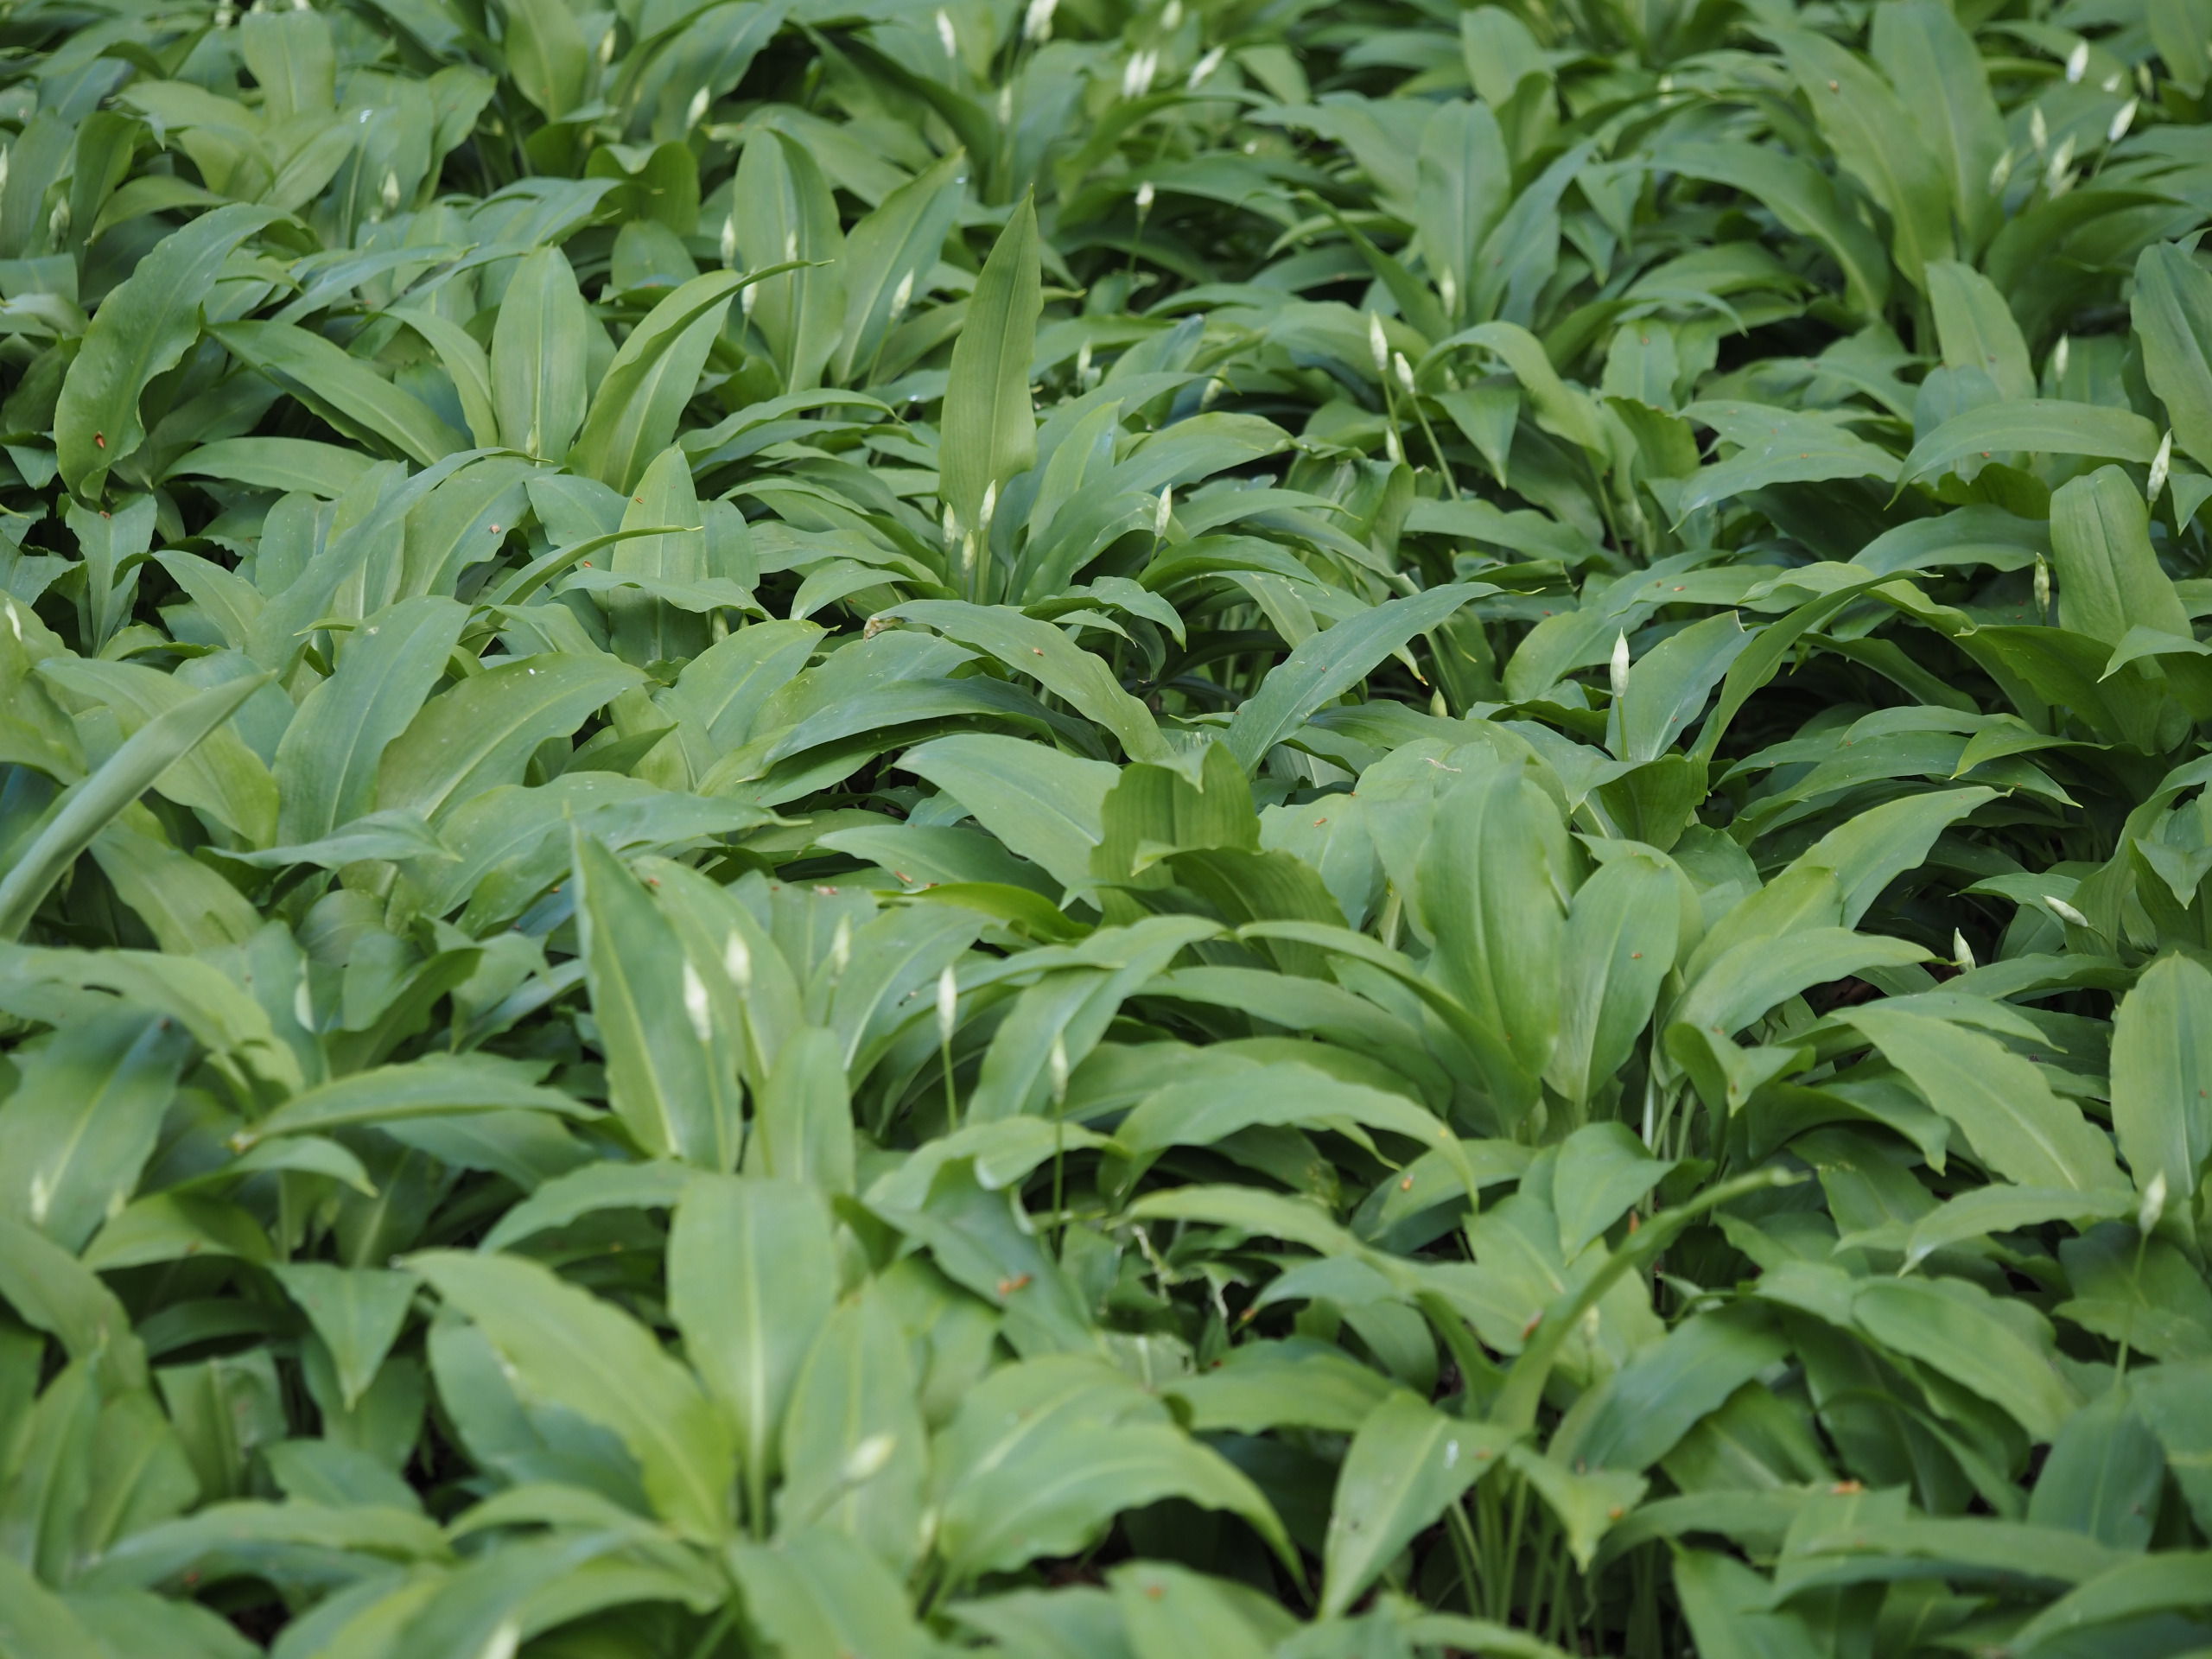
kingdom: Plantae
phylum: Tracheophyta
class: Liliopsida
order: Asparagales
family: Amaryllidaceae
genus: Allium
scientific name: Allium ursinum
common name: Rams-løg
